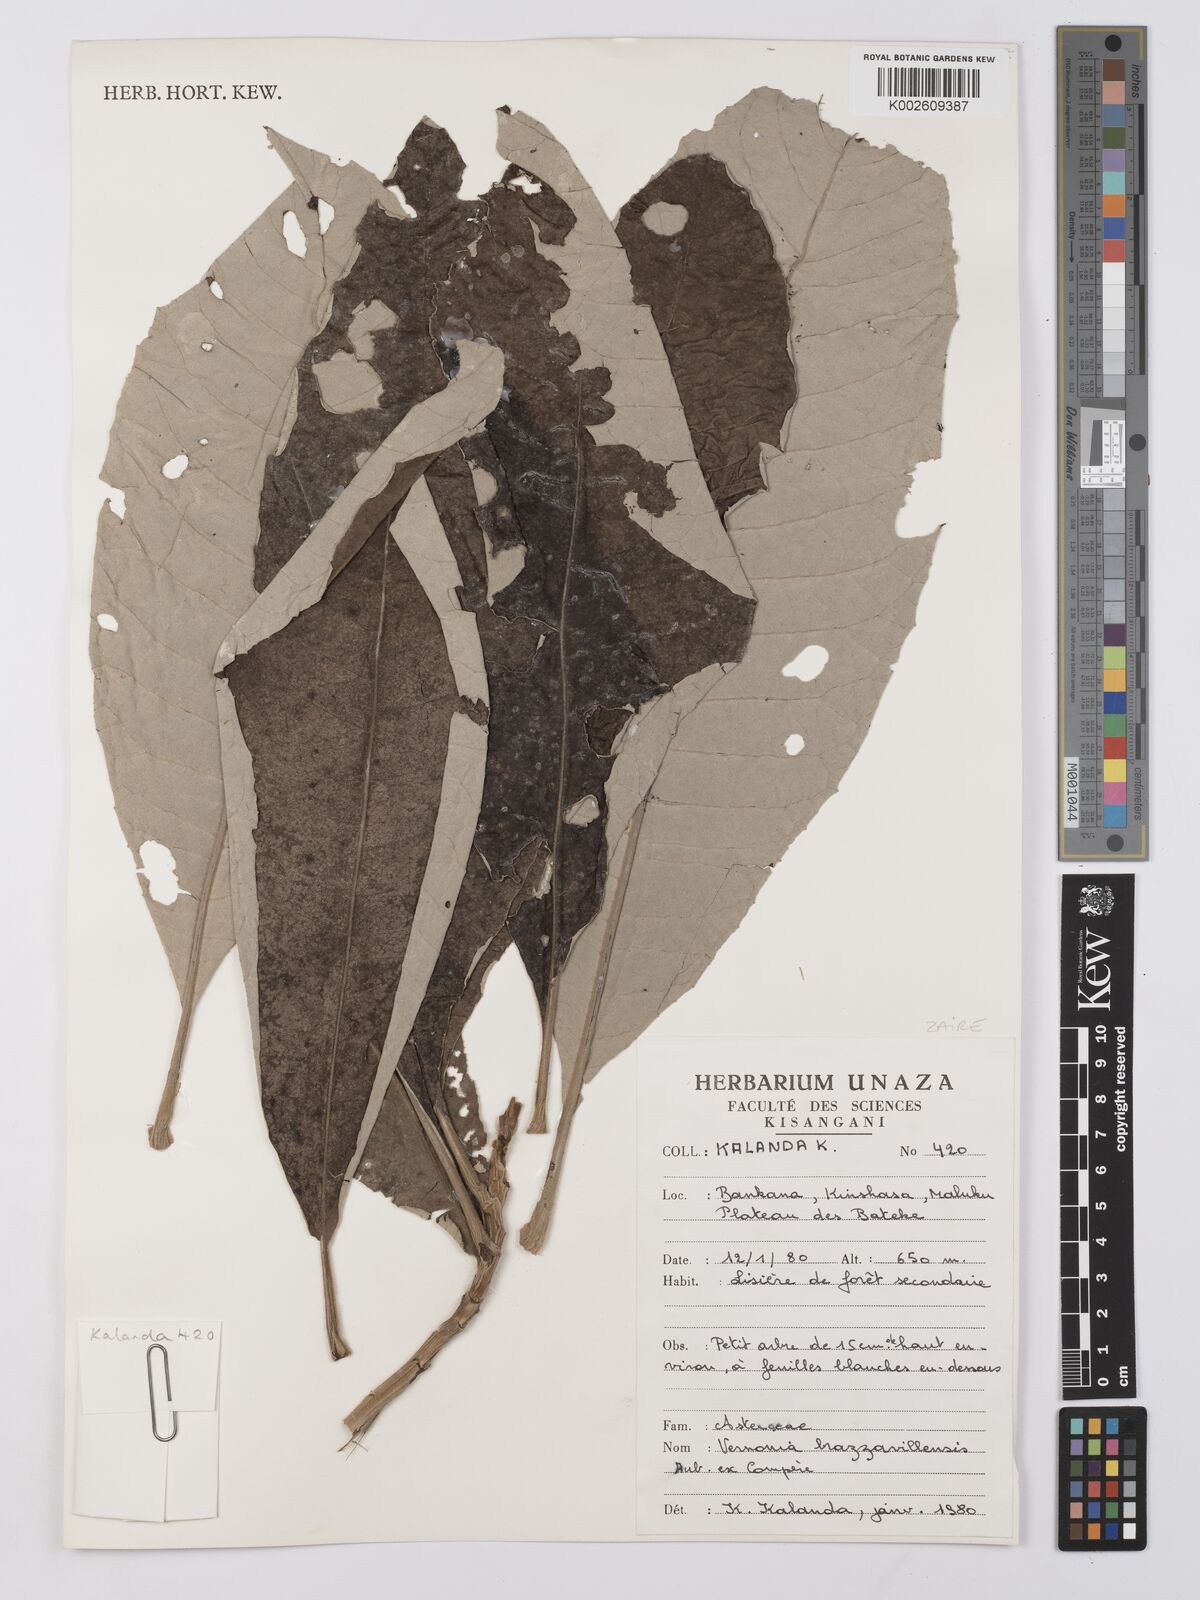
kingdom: Plantae
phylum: Tracheophyta
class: Magnoliopsida
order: Asterales
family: Asteraceae
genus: Vernonia
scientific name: Vernonia brazzavillensis
